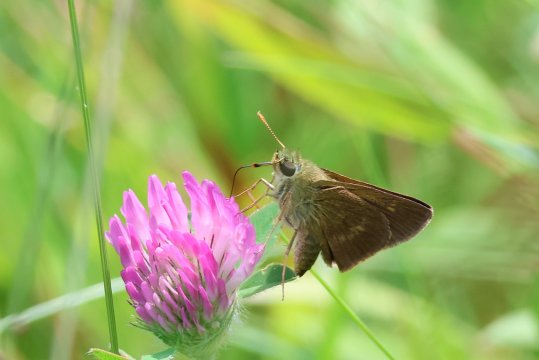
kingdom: Animalia
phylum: Arthropoda
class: Insecta
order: Lepidoptera
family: Hesperiidae
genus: Polites
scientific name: Polites egeremet
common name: Northern Broken-Dash
